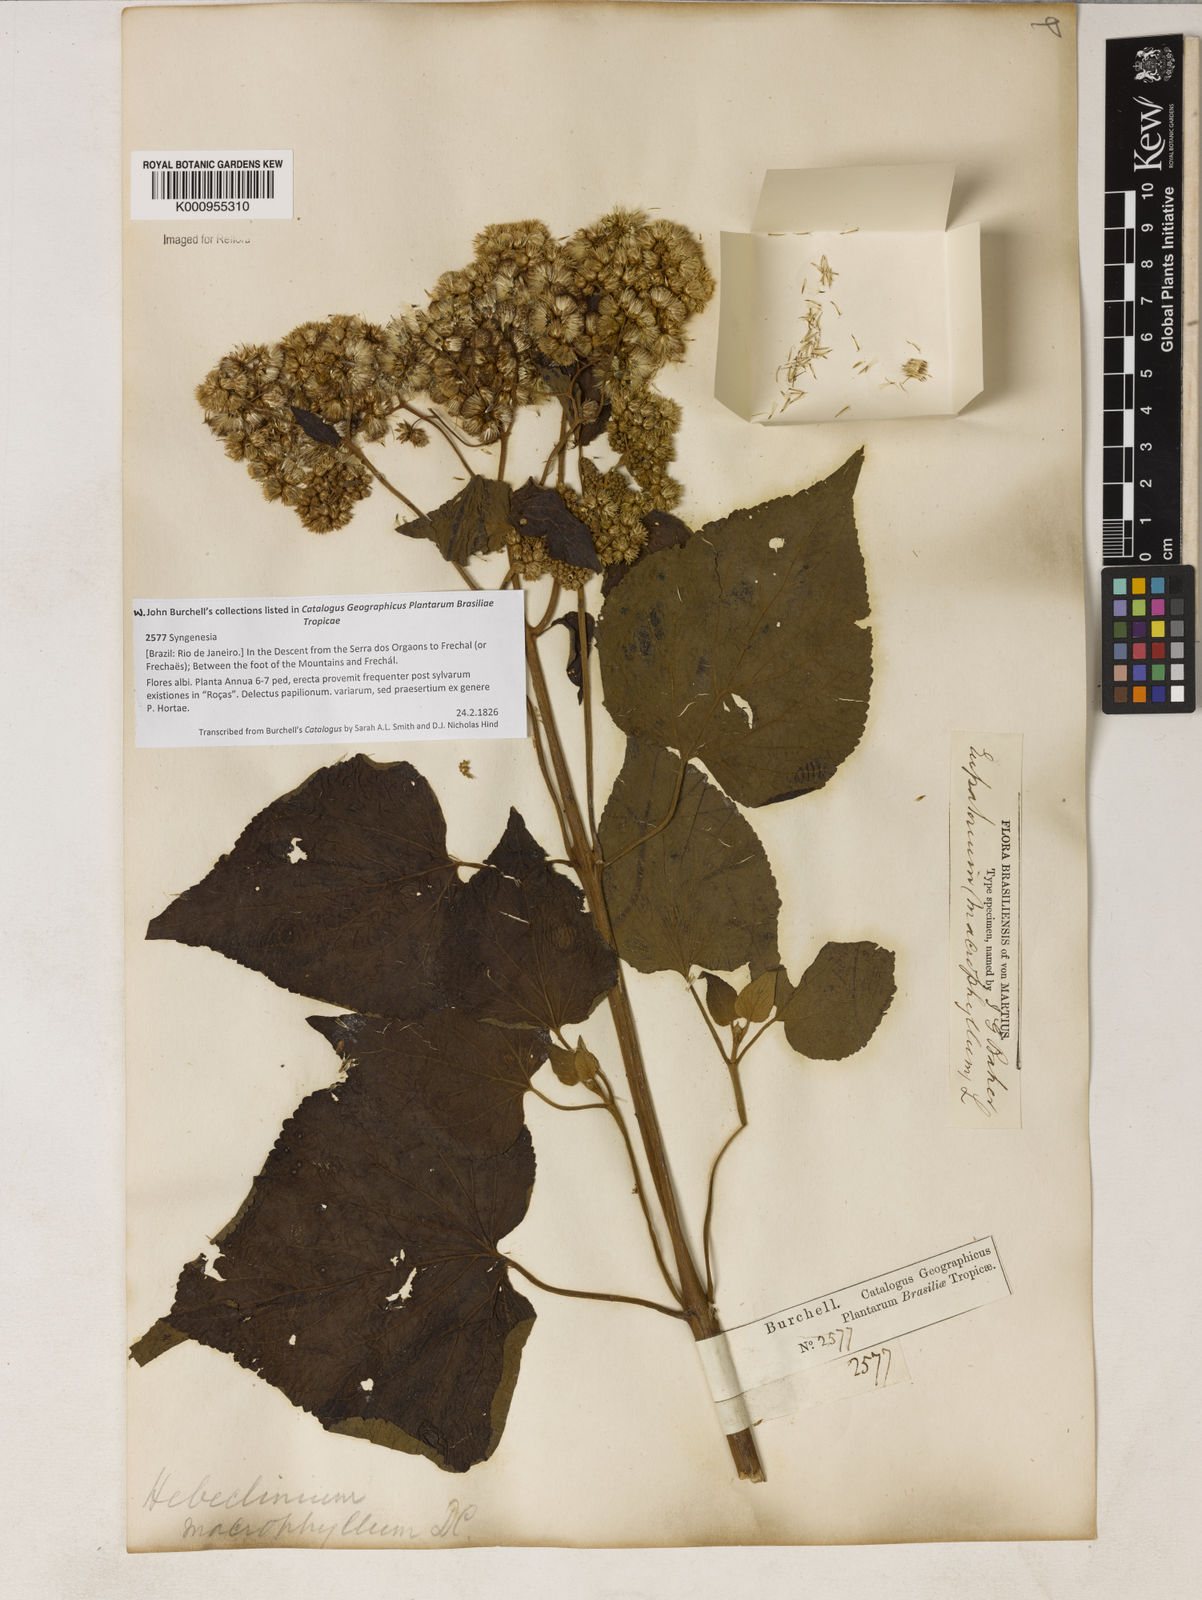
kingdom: Plantae
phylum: Tracheophyta
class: Magnoliopsida
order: Asterales
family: Asteraceae
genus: Hebeclinium
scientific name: Hebeclinium macrophyllum
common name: Largeleaf thoroughwort
